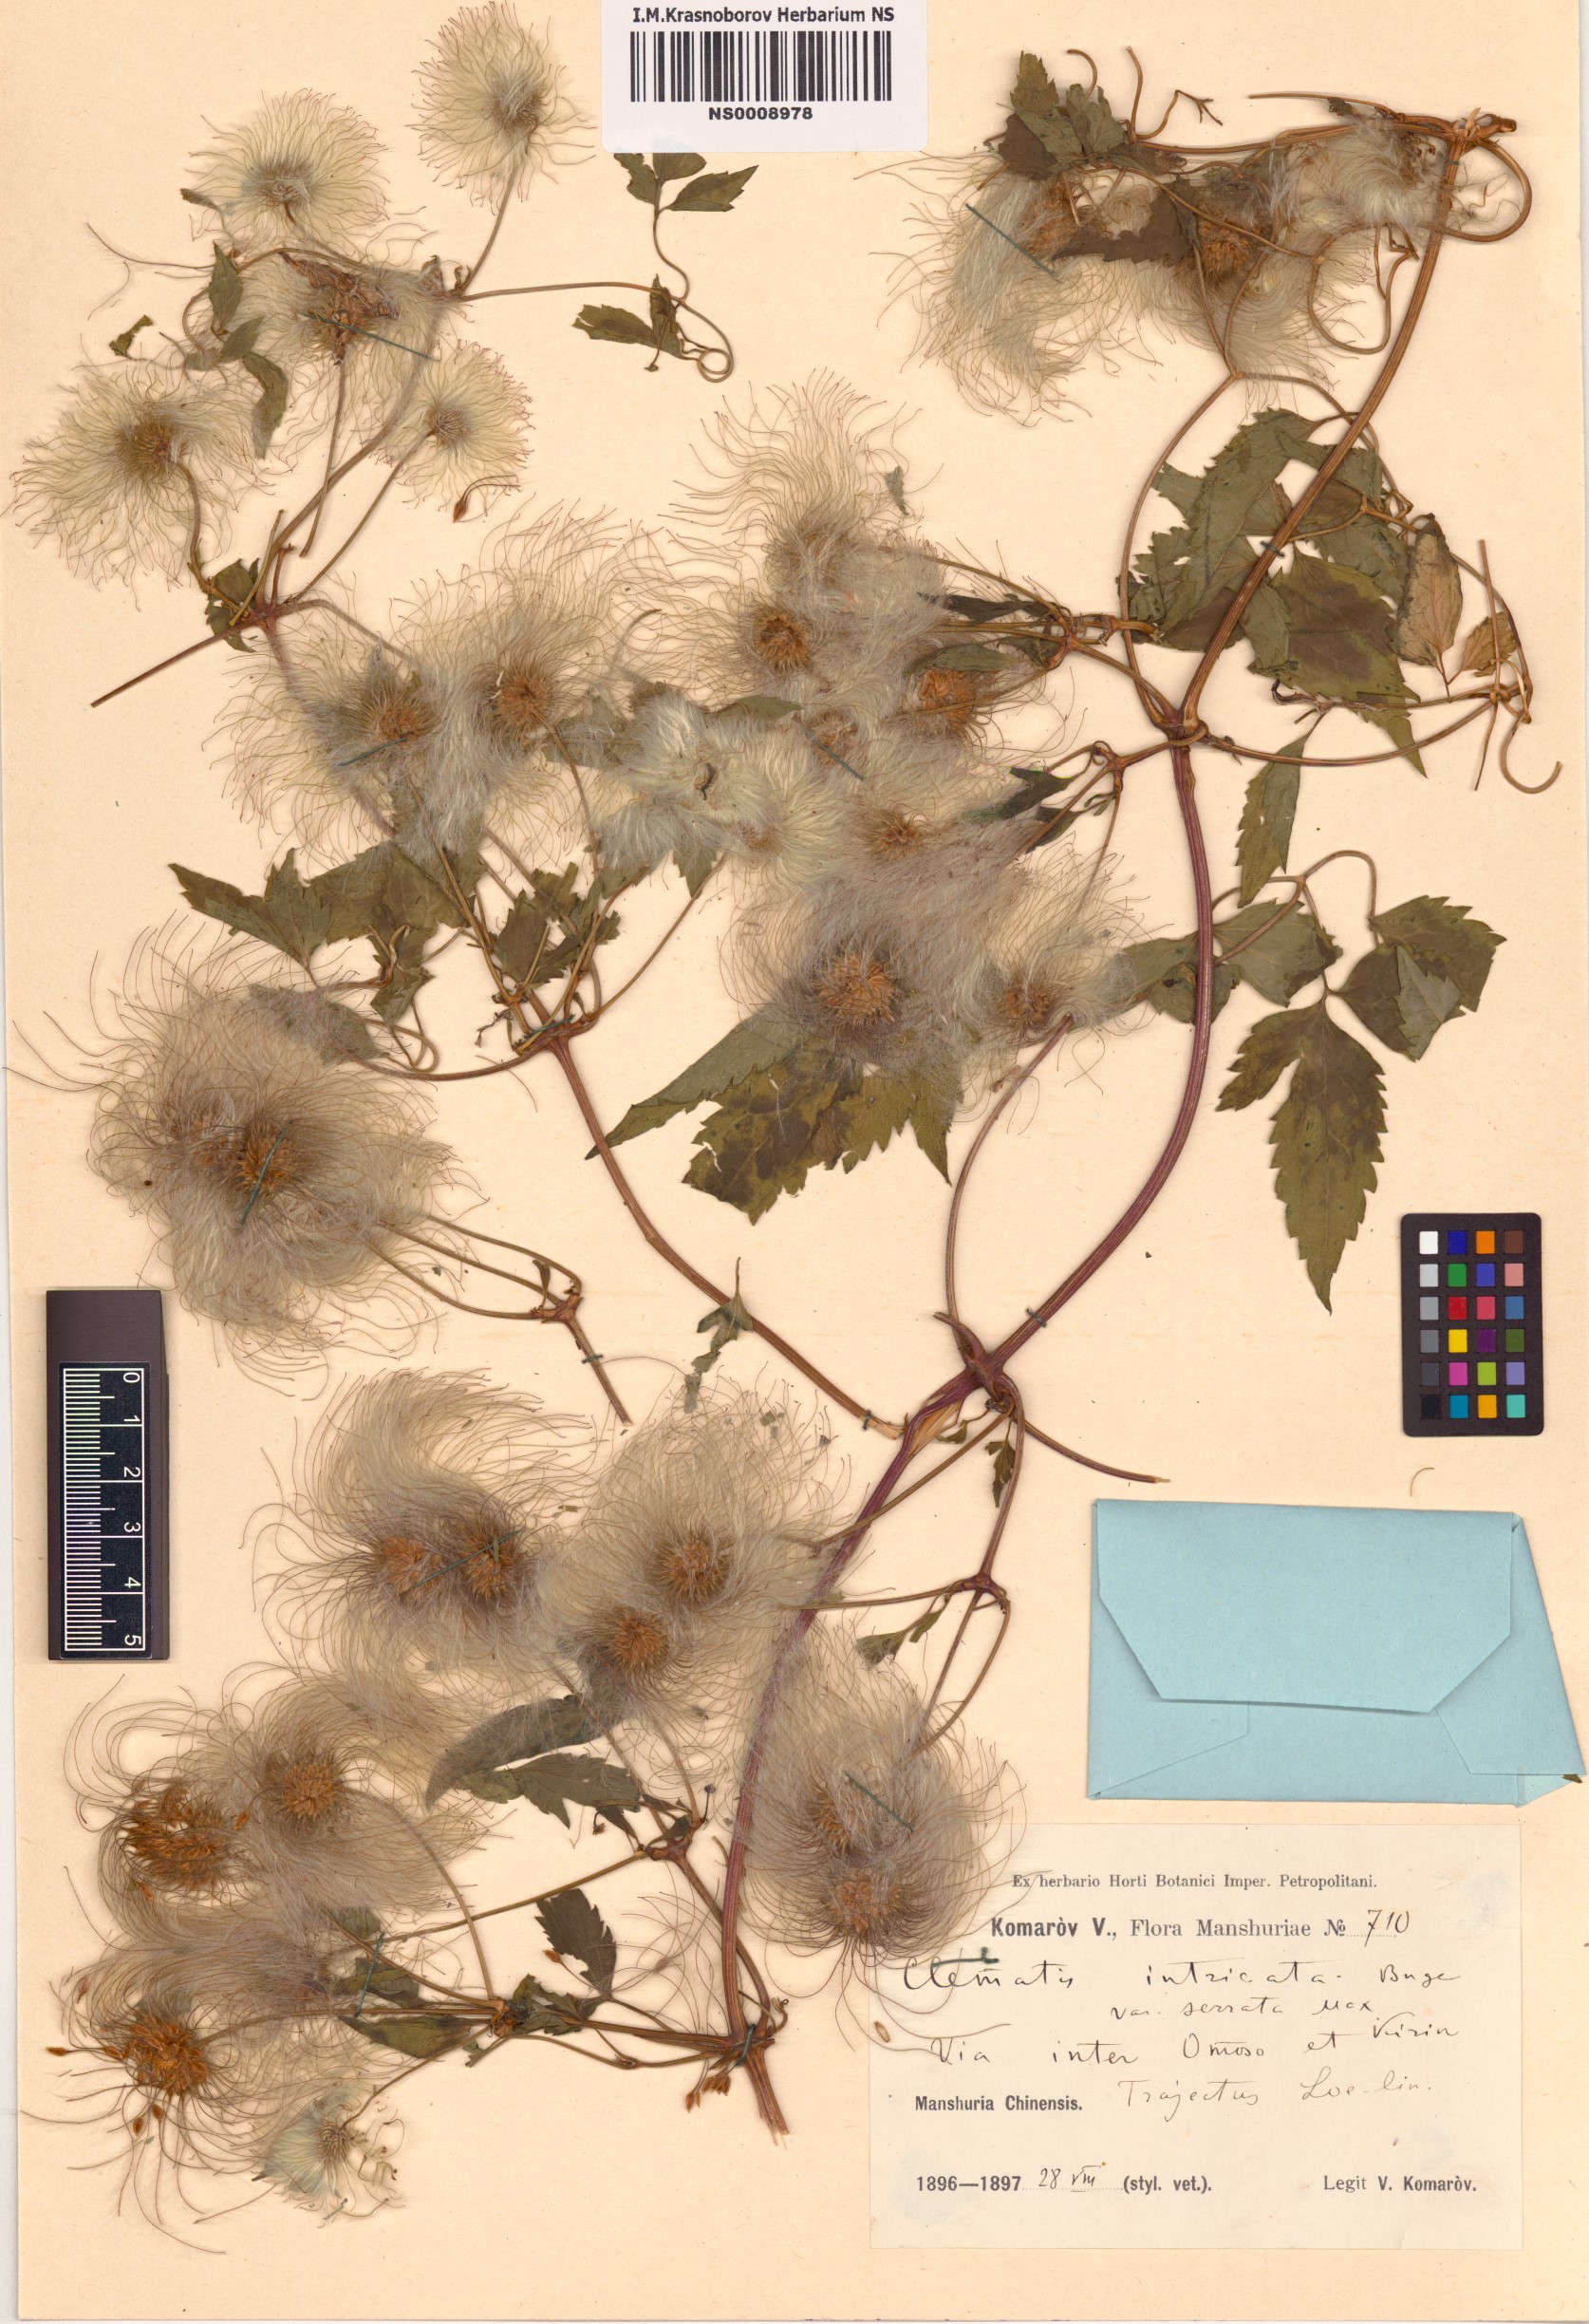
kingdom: Plantae
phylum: Tracheophyta
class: Magnoliopsida
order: Ranunculales
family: Ranunculaceae
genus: Clematis
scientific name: Clematis serratifolia
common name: Korean clematis
